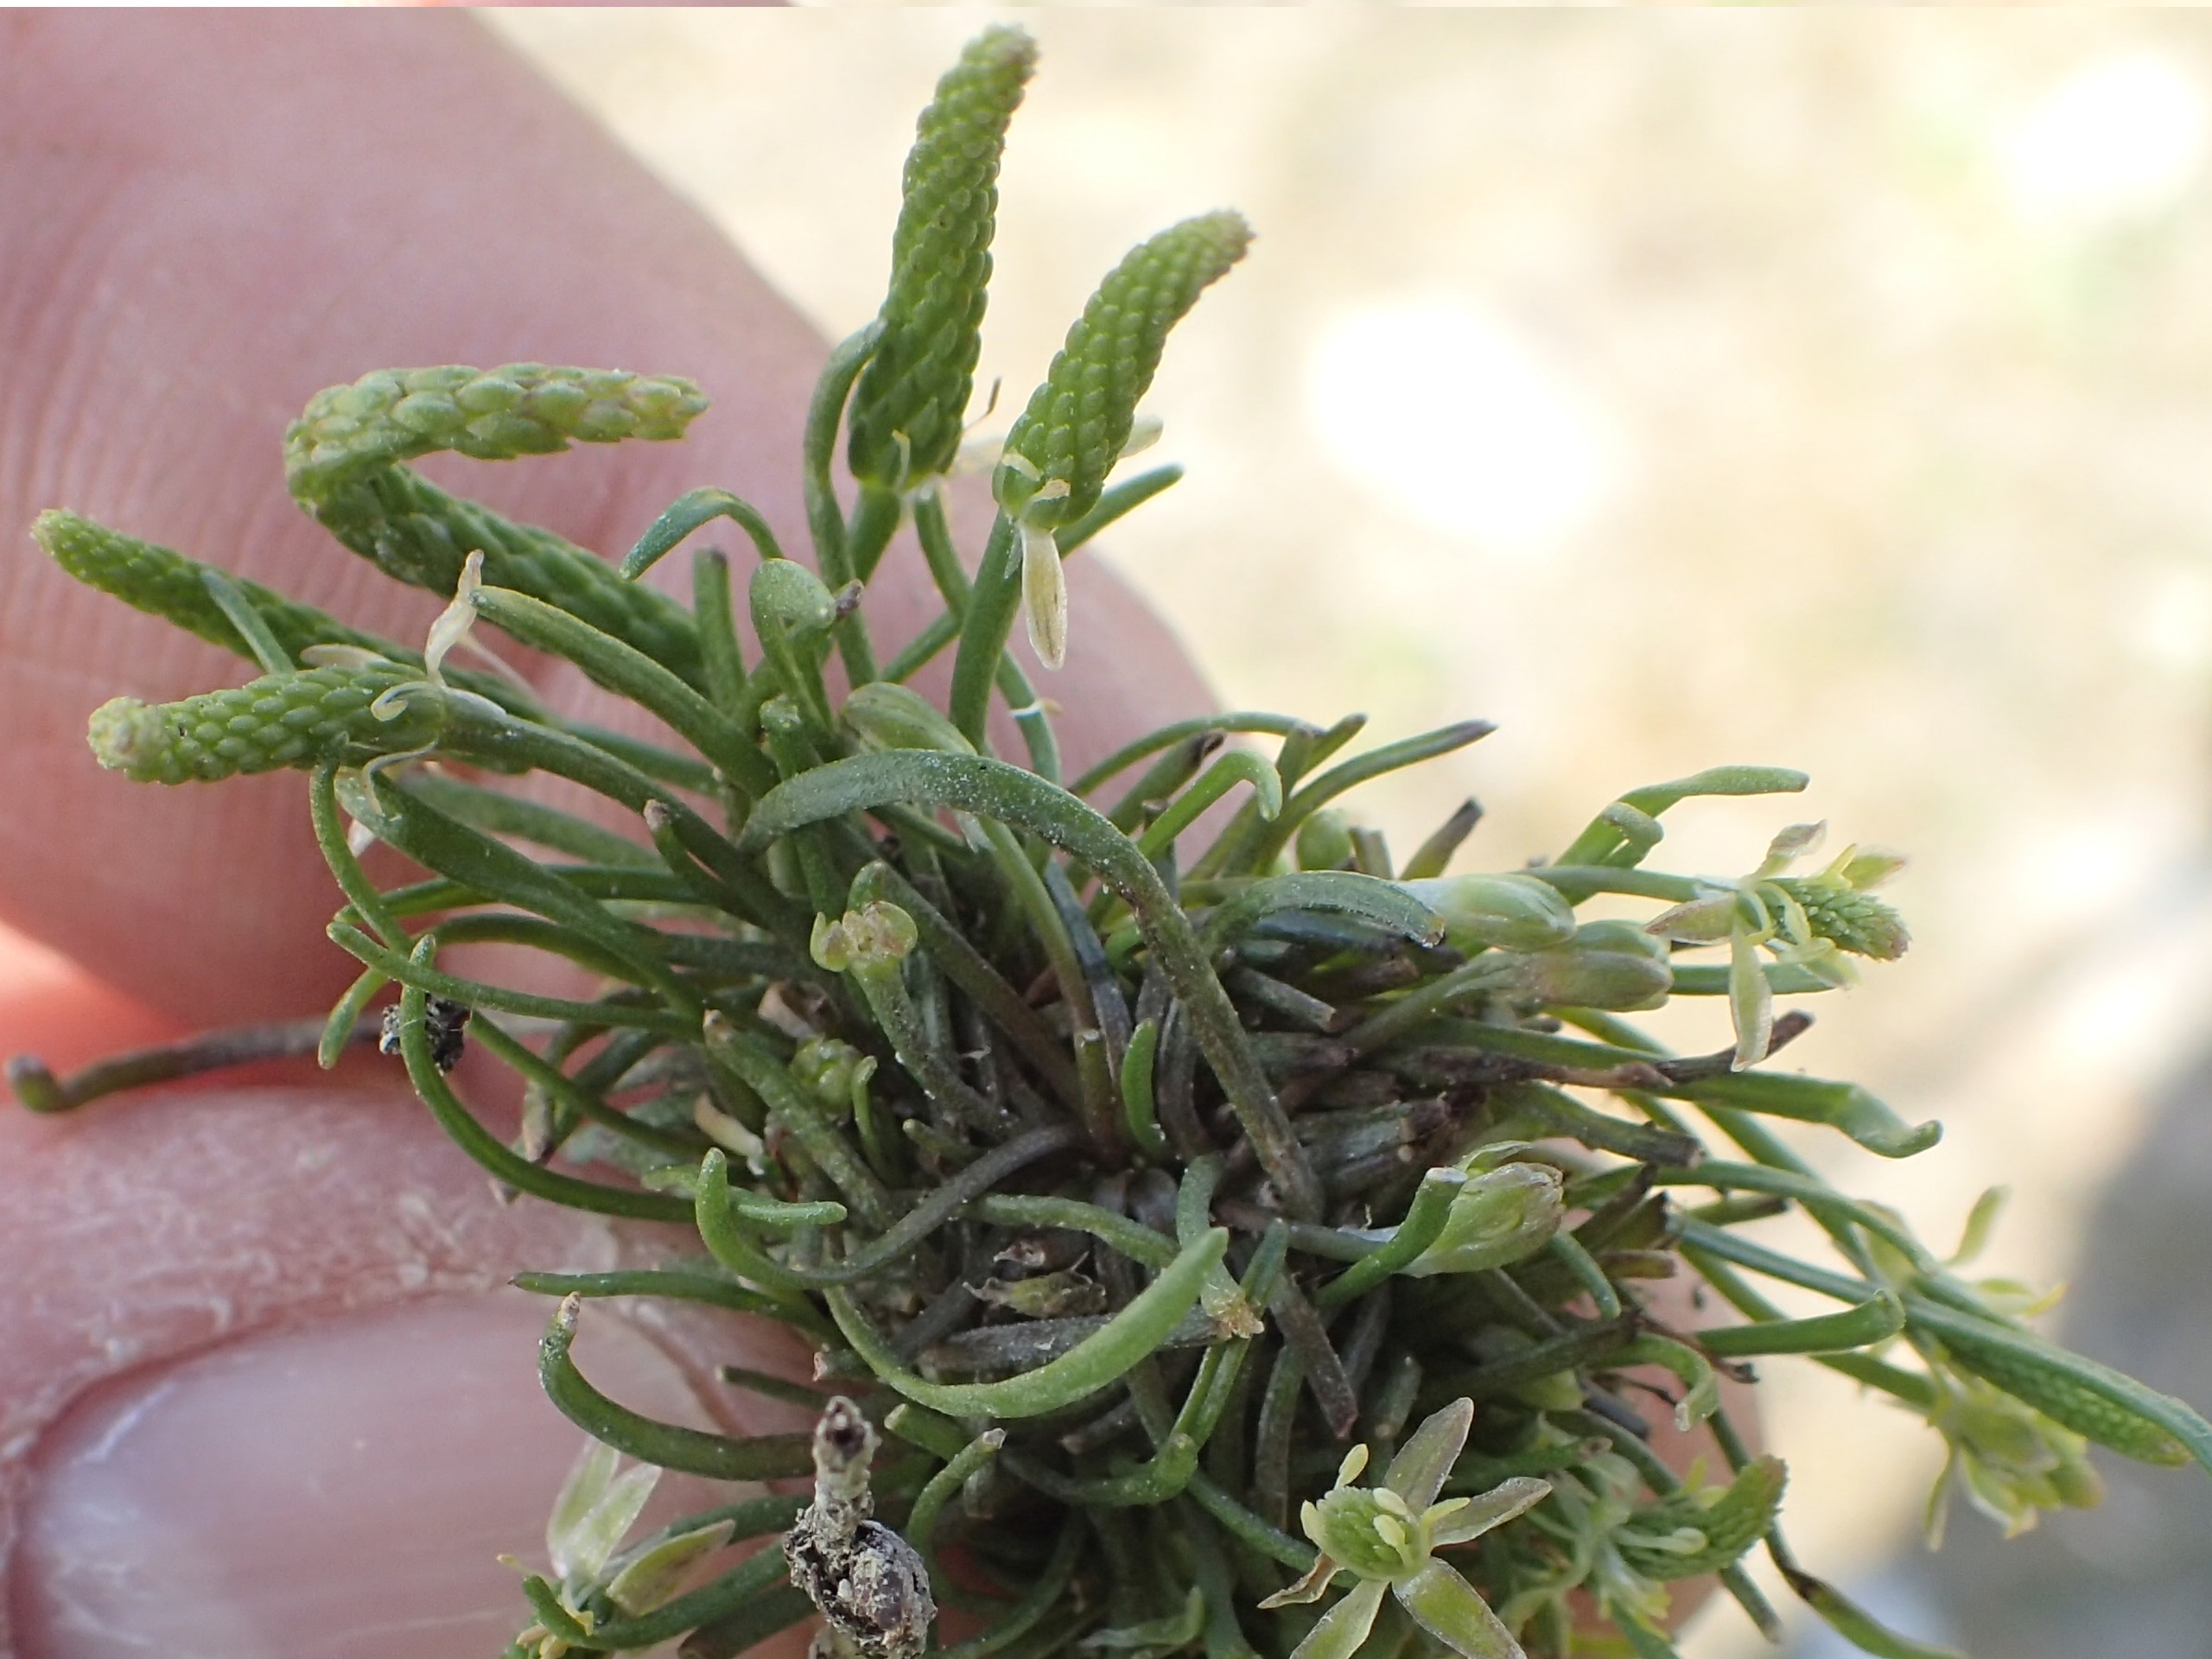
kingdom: Plantae
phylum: Tracheophyta
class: Magnoliopsida
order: Ranunculales
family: Ranunculaceae
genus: Myosurus
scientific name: Myosurus minimus
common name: Musehale
